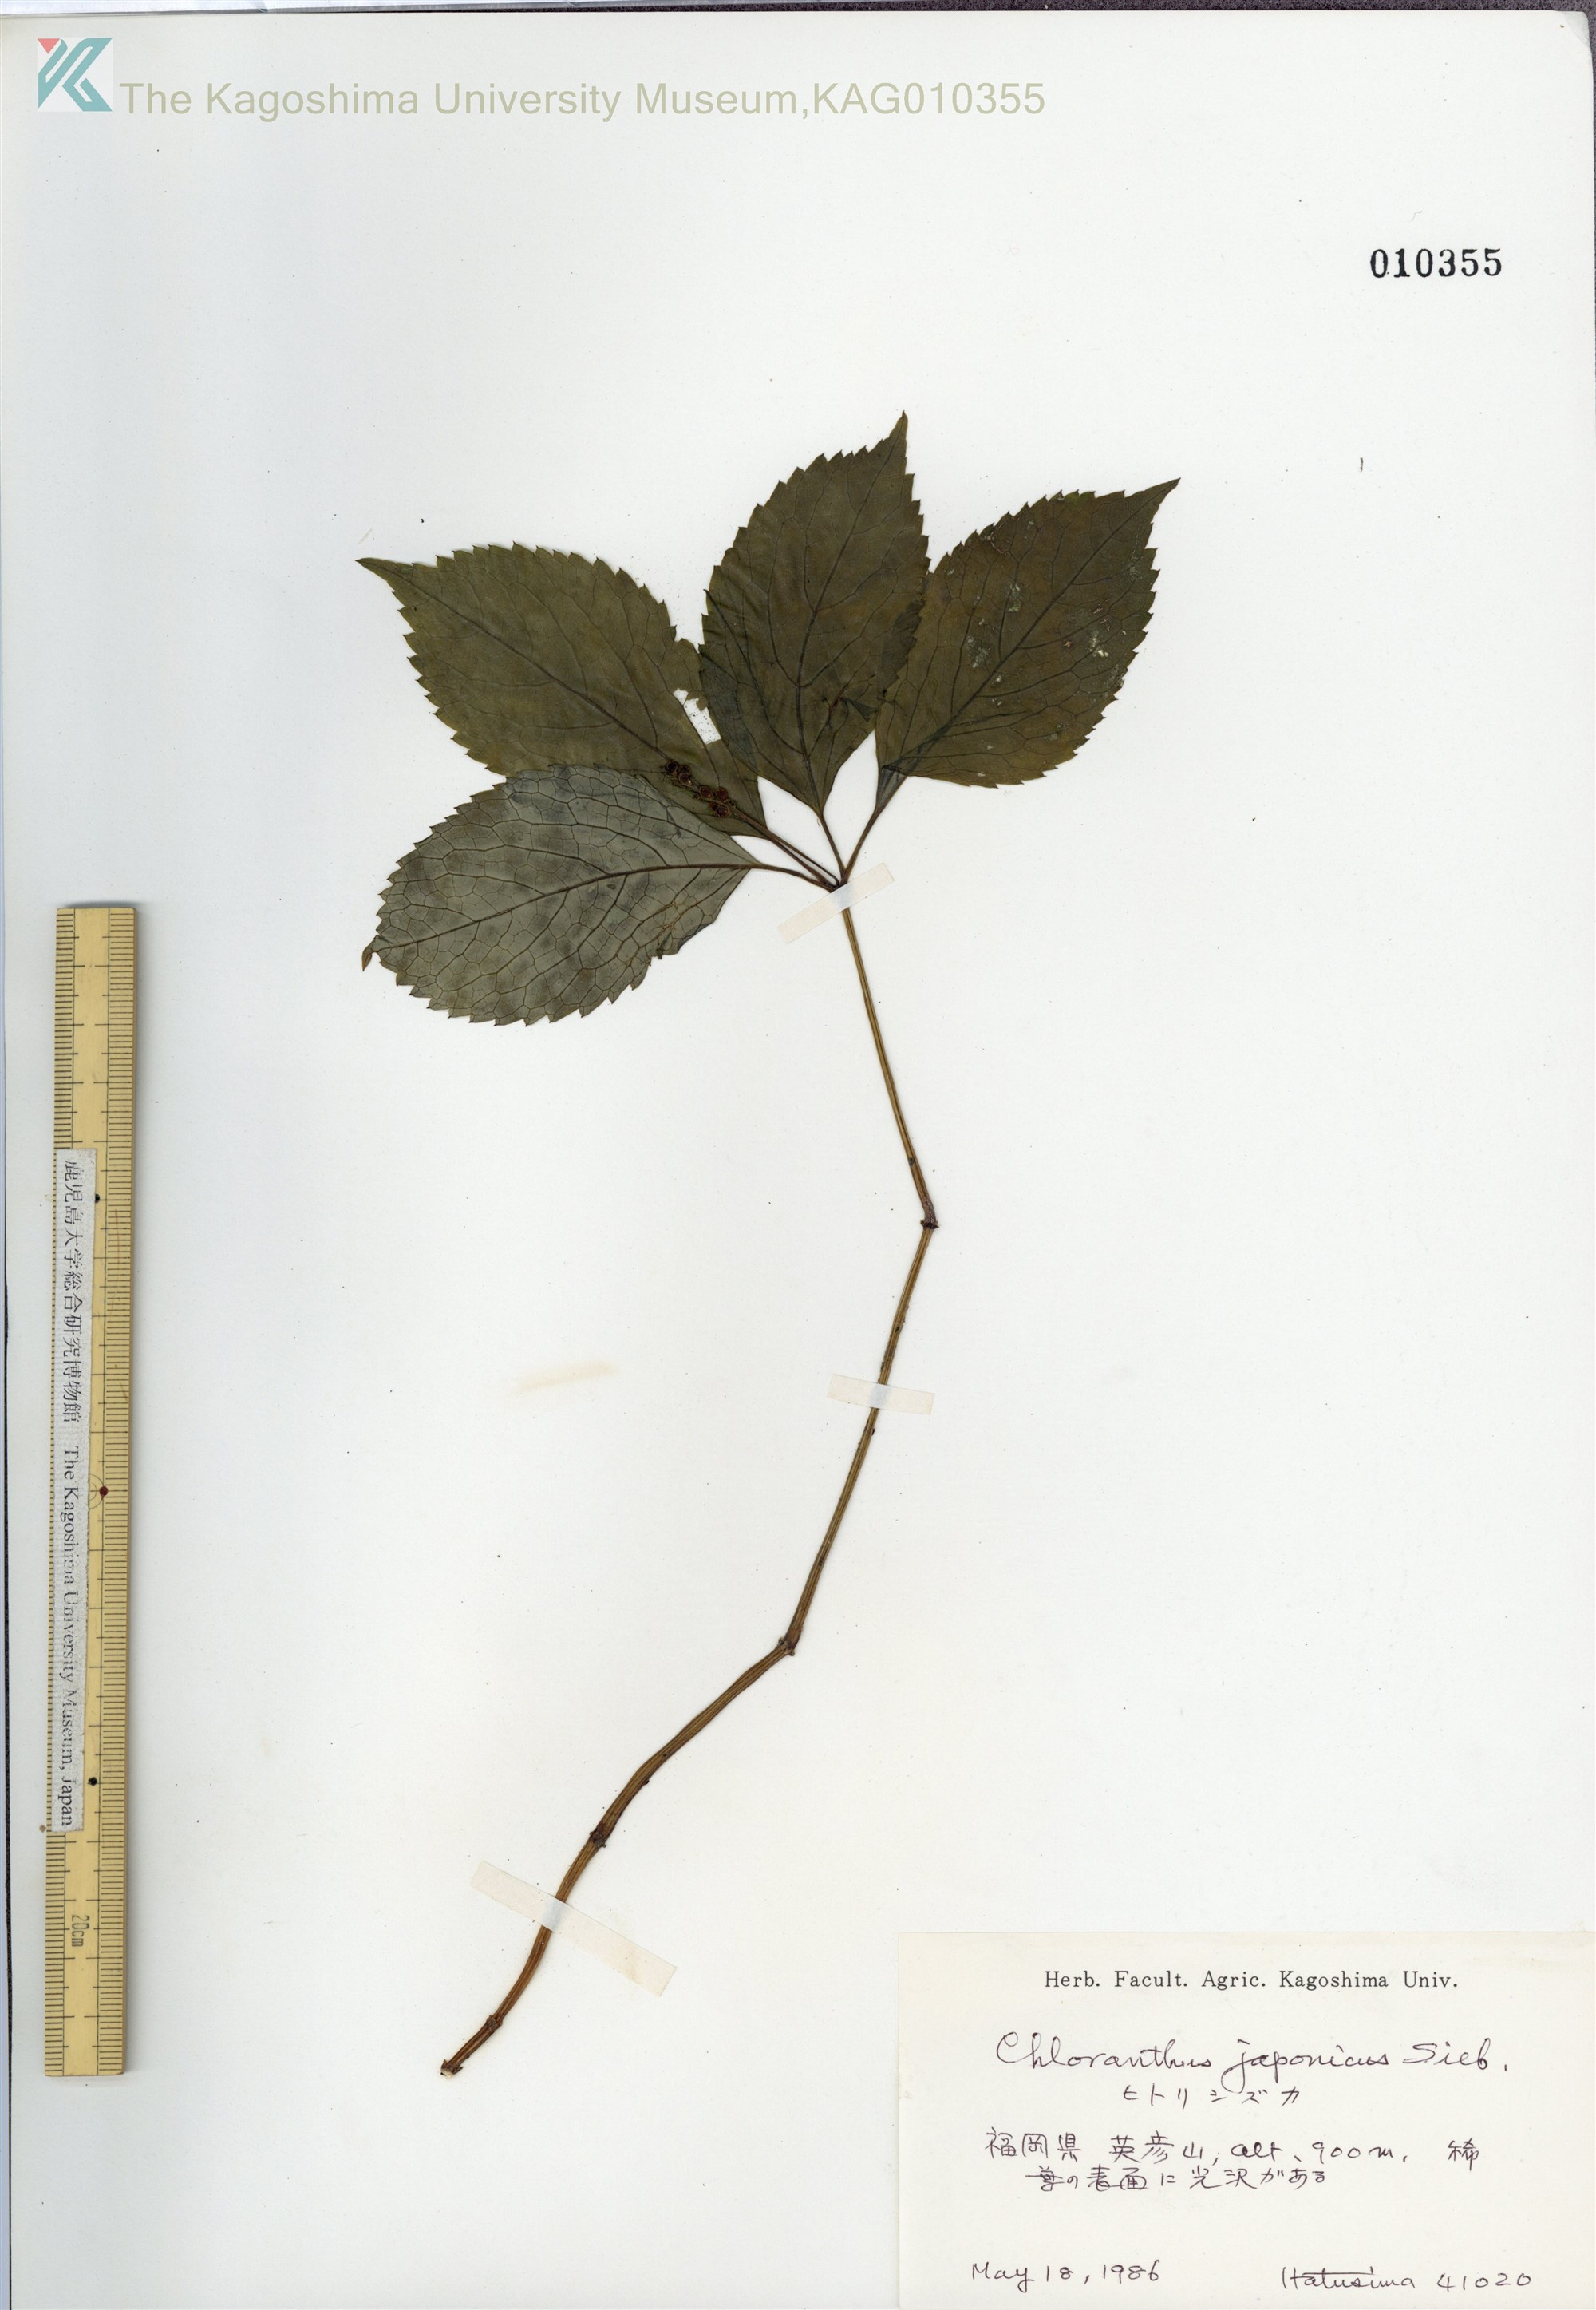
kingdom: Plantae
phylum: Tracheophyta
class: Magnoliopsida
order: Chloranthales
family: Chloranthaceae
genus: Chloranthus
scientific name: Chloranthus japonicus
